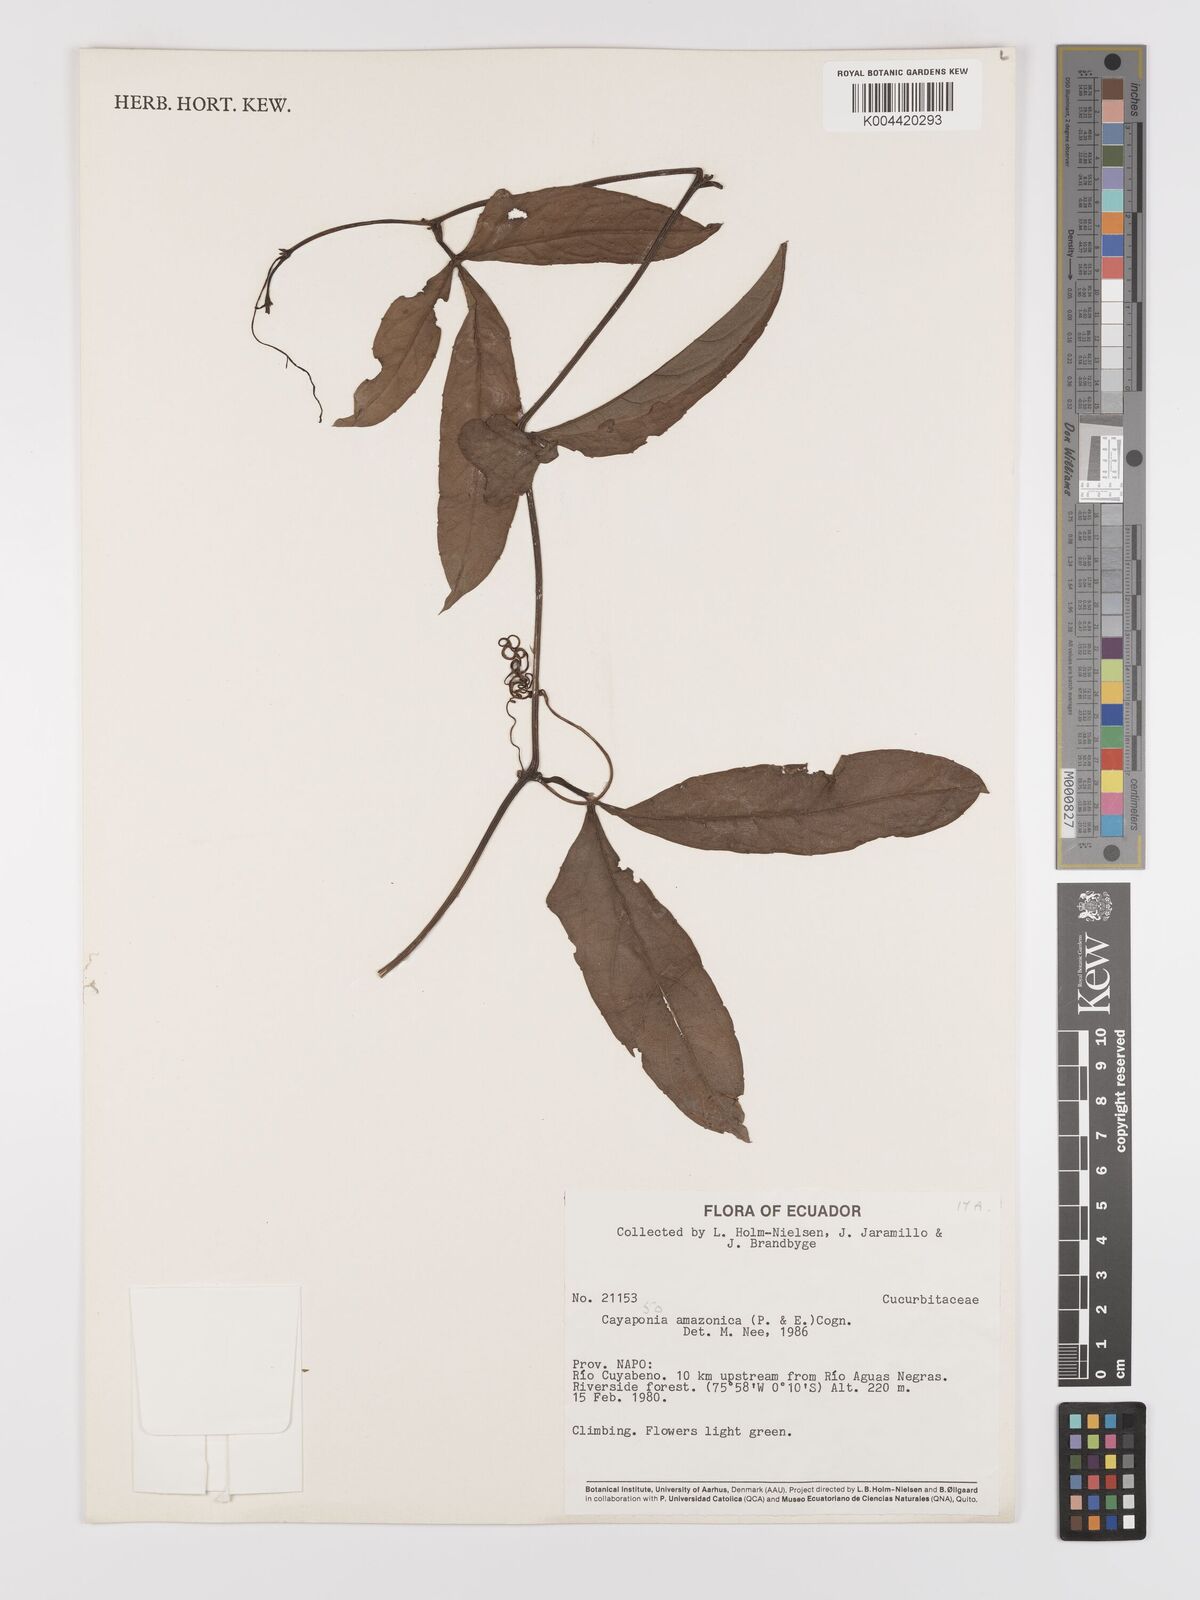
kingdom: Plantae
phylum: Tracheophyta
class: Magnoliopsida
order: Cucurbitales
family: Cucurbitaceae
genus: Cayaponia
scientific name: Cayaponia amazonica
